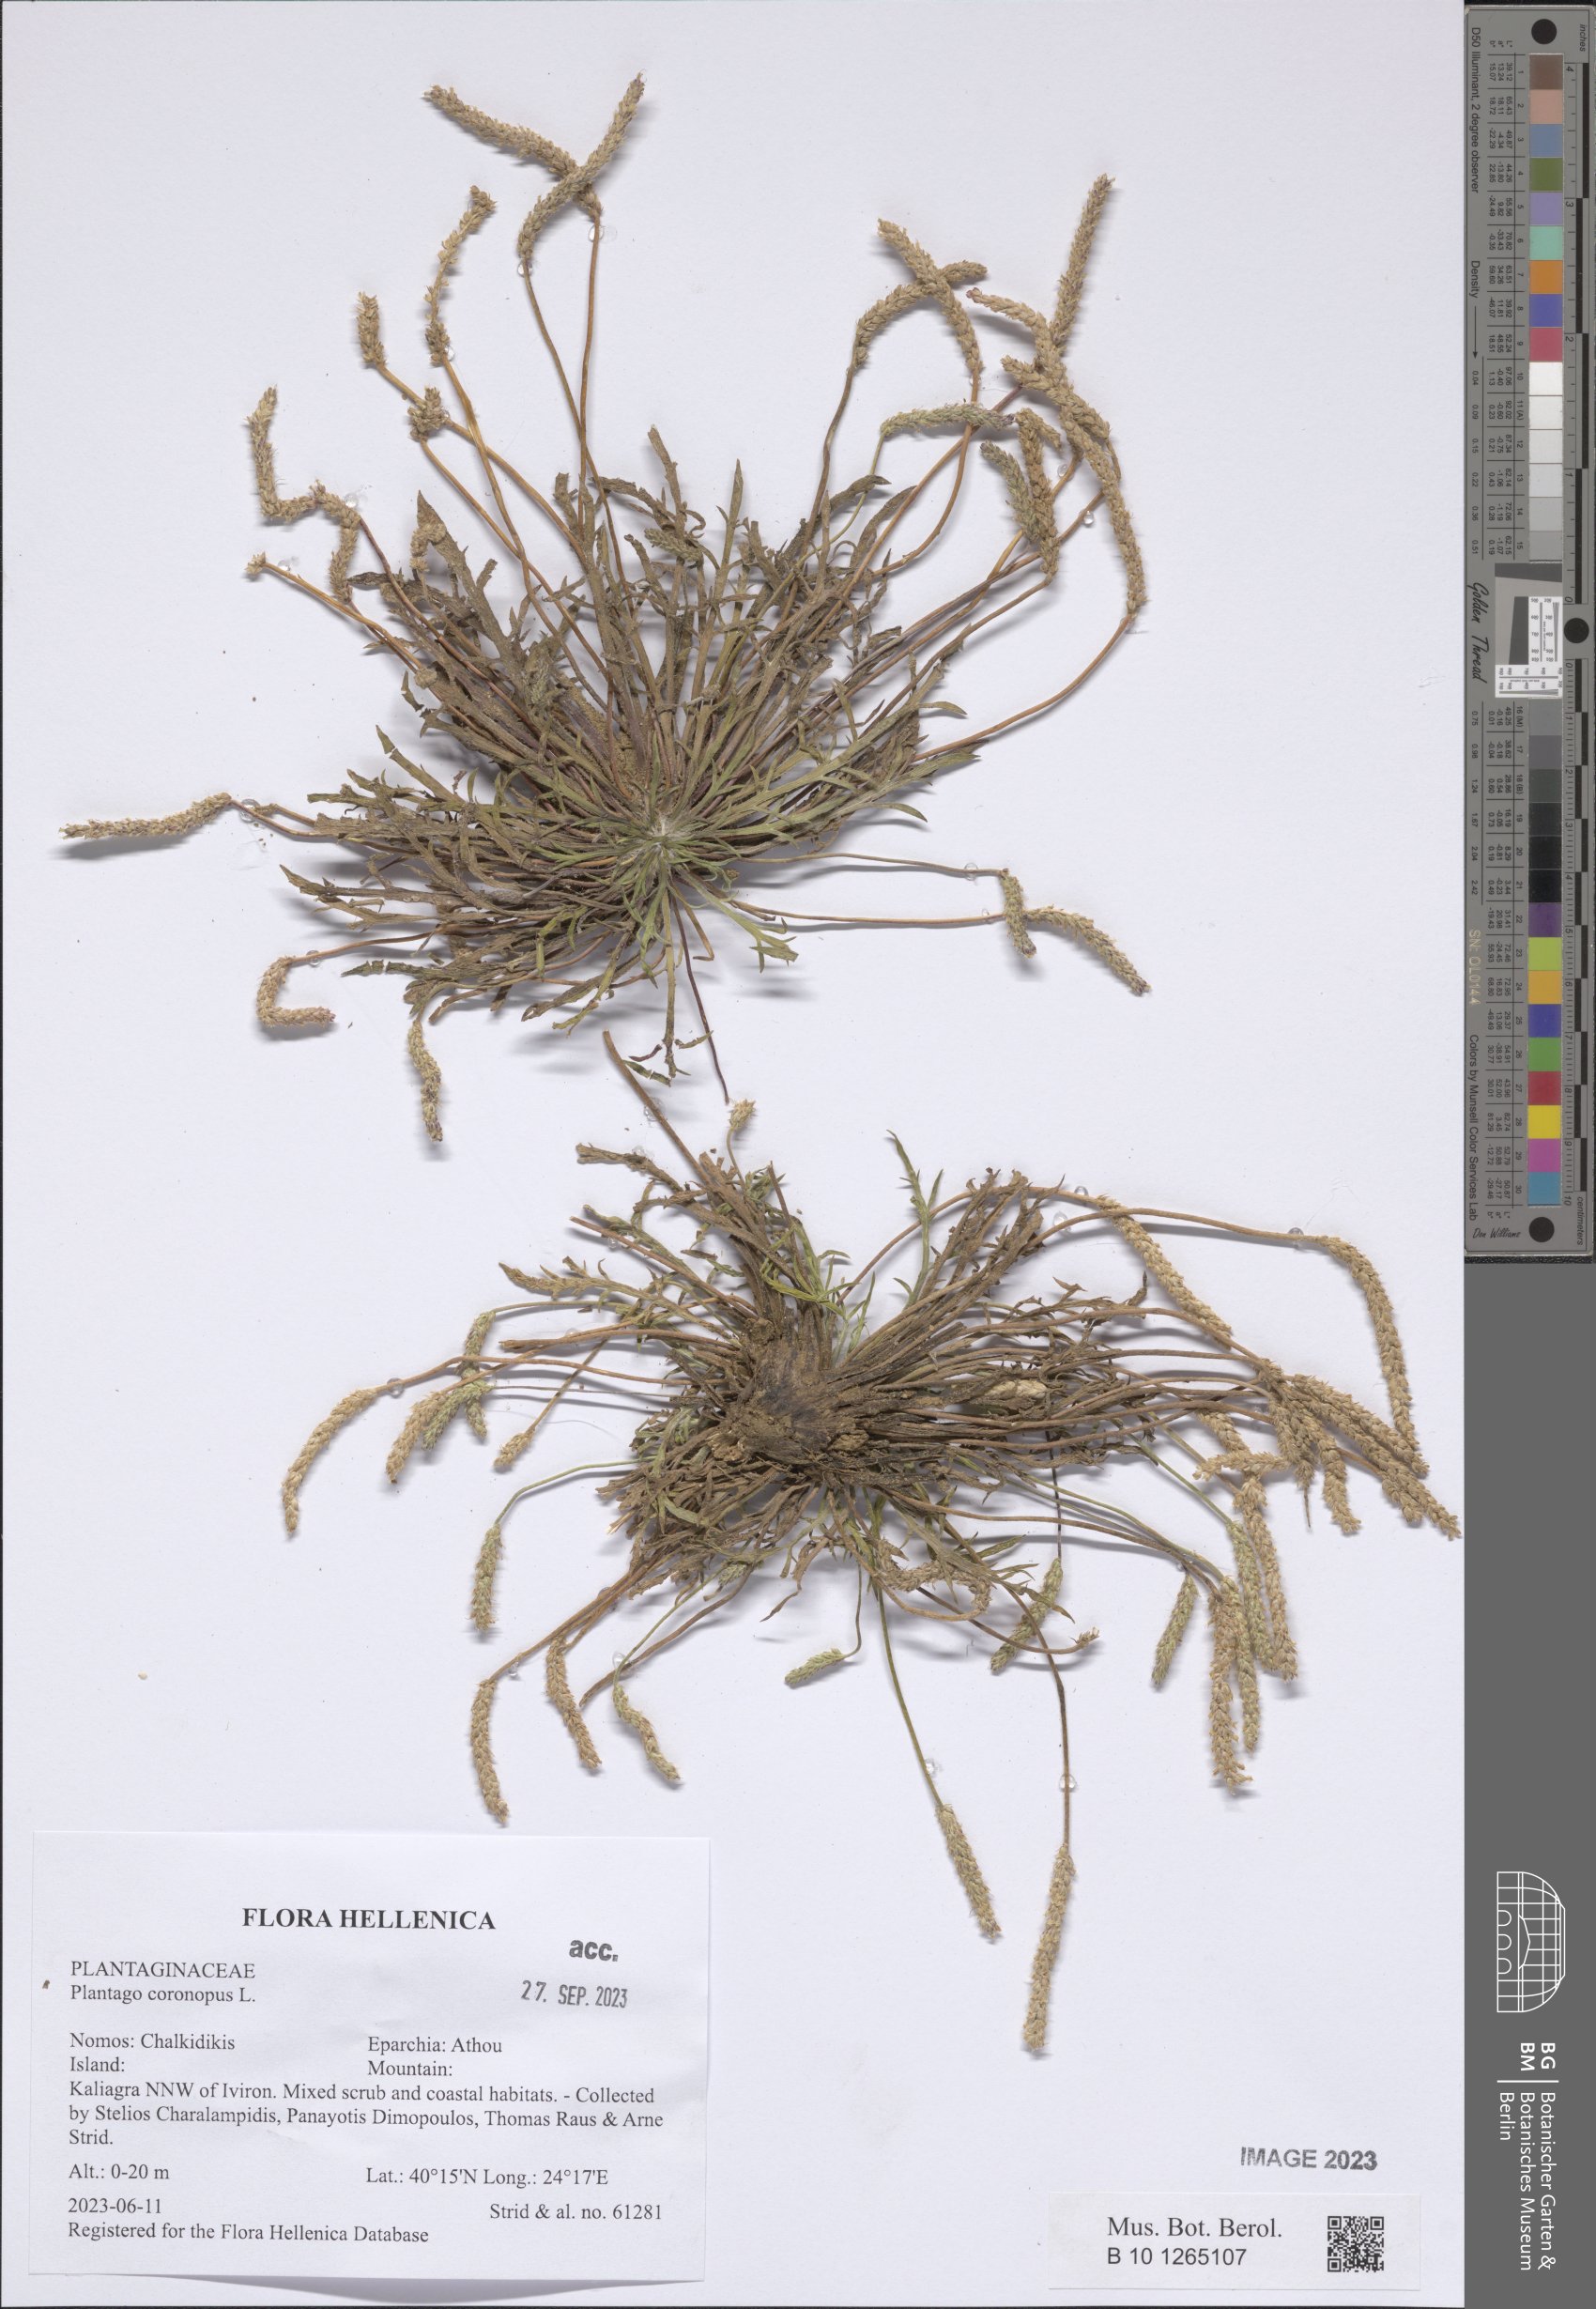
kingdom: Plantae
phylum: Tracheophyta
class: Magnoliopsida
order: Lamiales
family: Plantaginaceae
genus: Plantago
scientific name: Plantago coronopus
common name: Buck's-horn plantain
